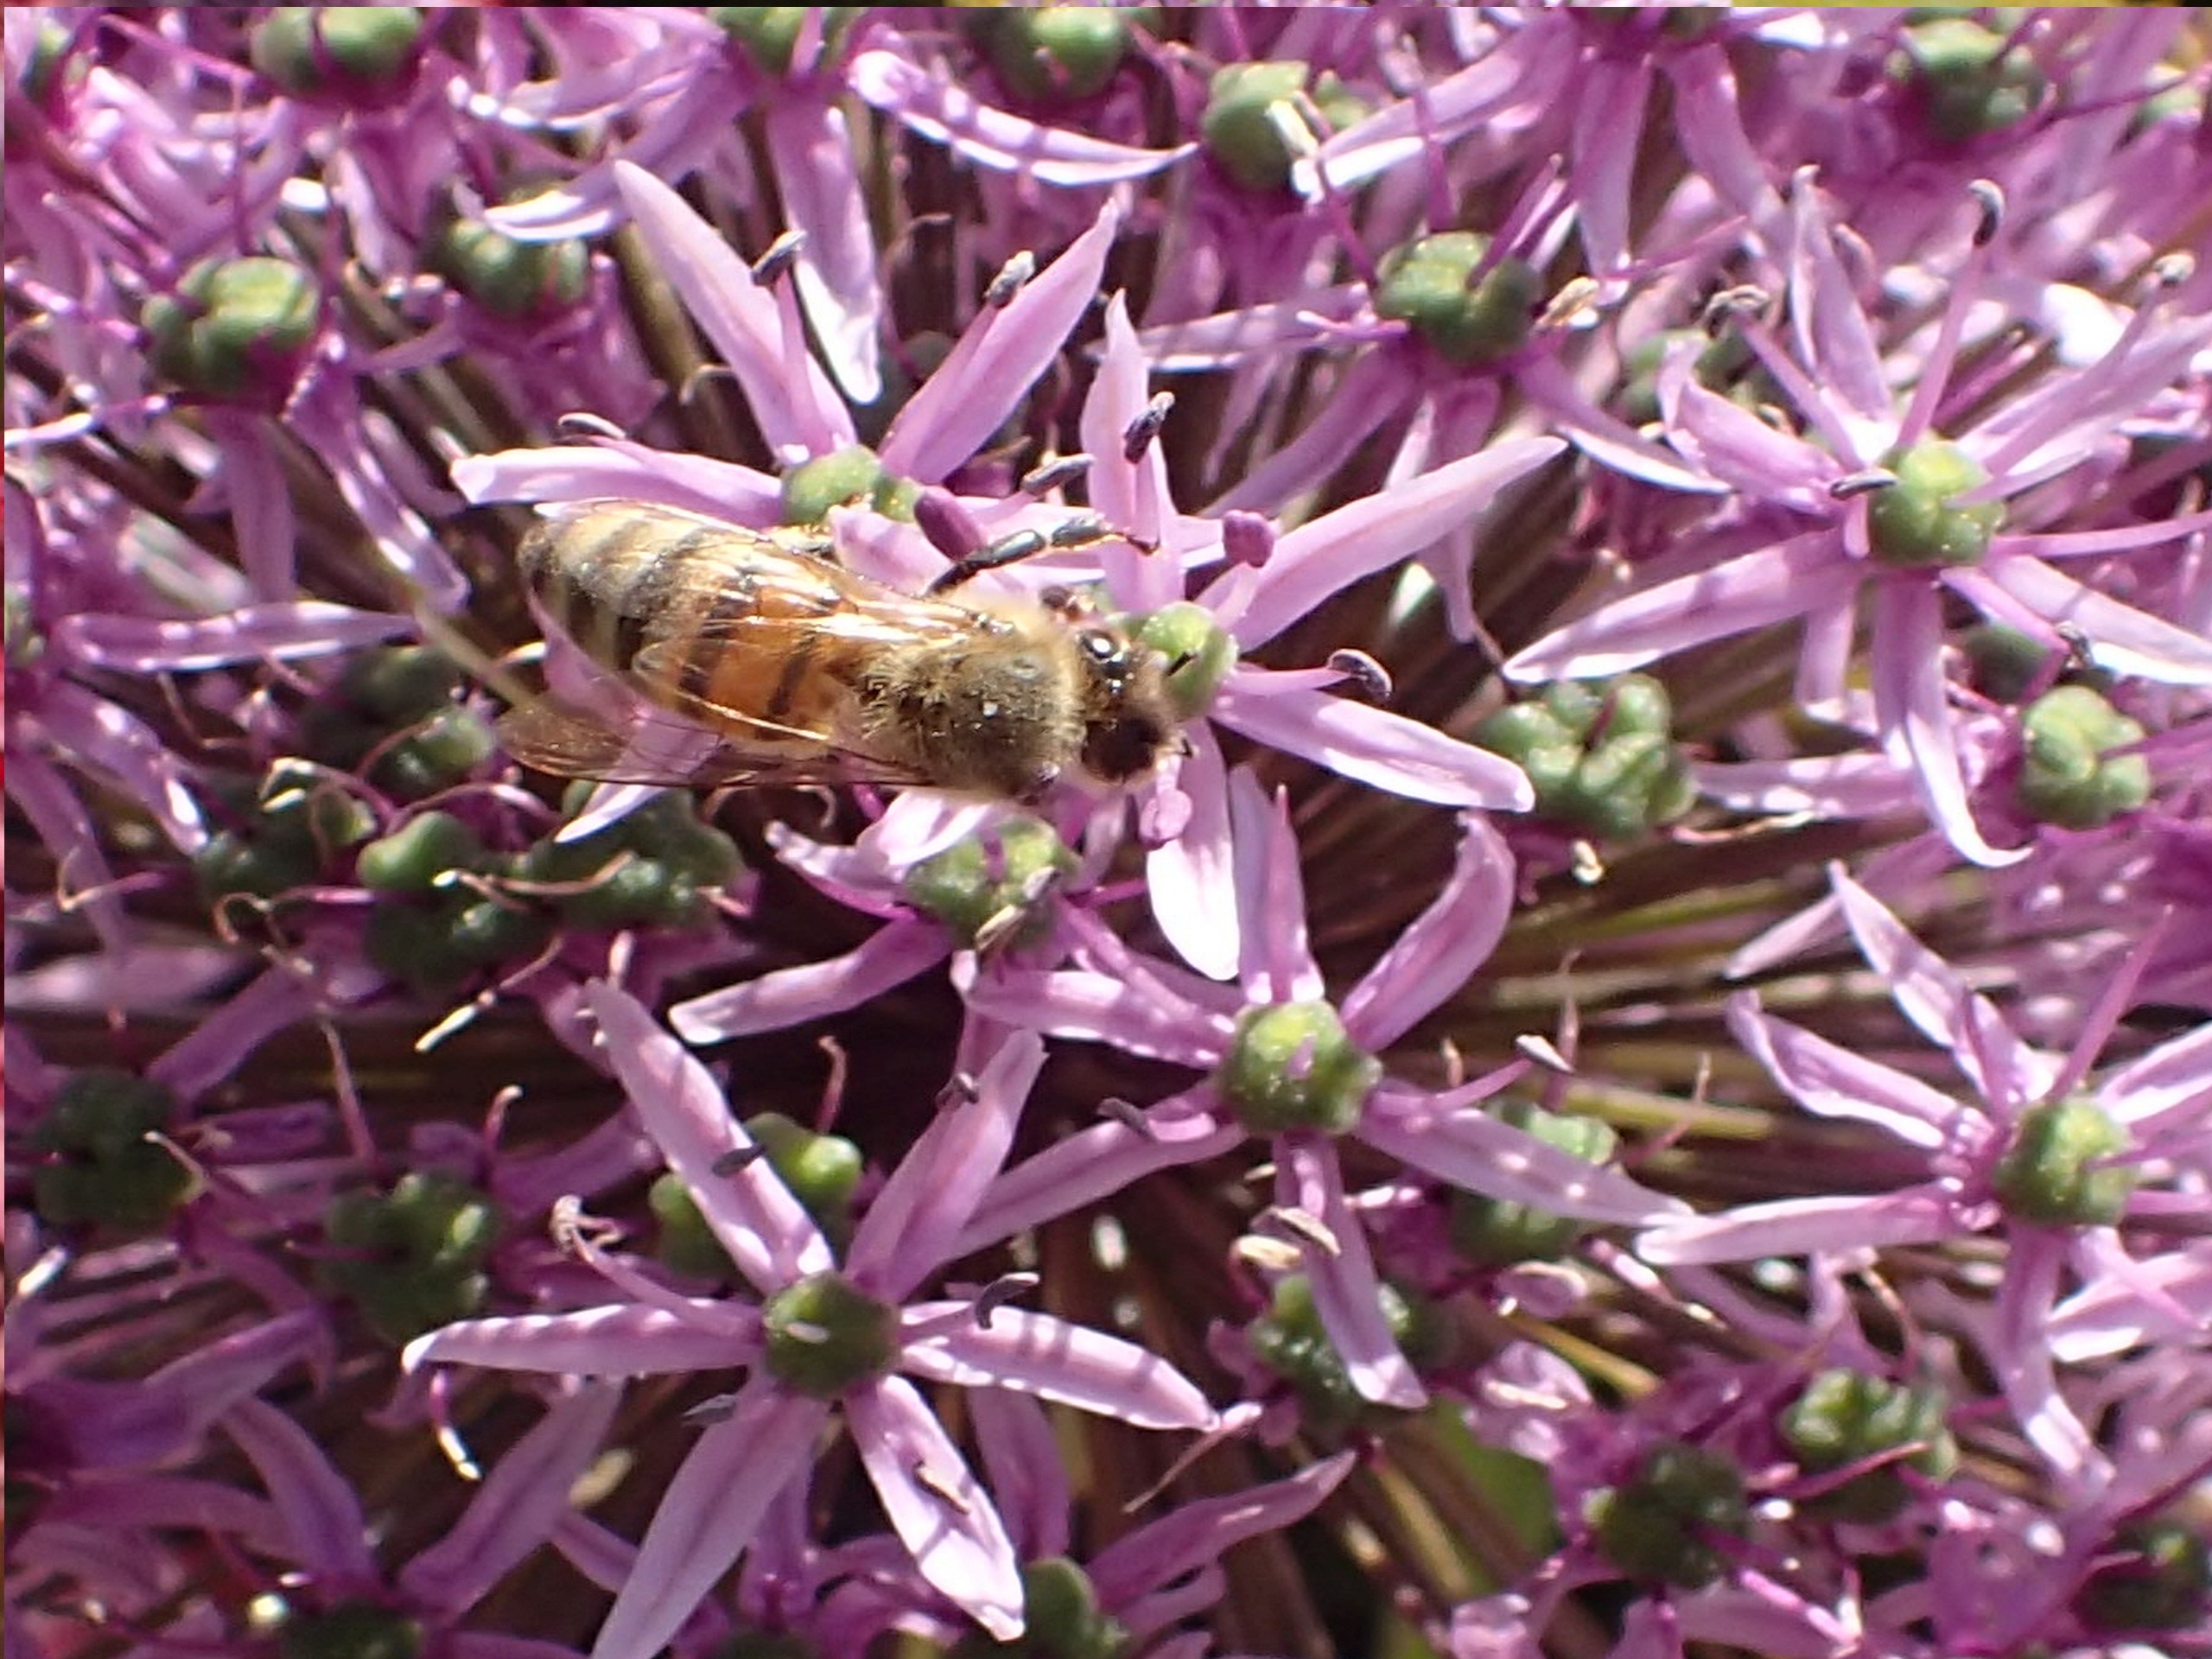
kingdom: Animalia
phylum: Arthropoda
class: Insecta
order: Hymenoptera
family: Apidae
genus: Apis
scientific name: Apis mellifera
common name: Honningbi
